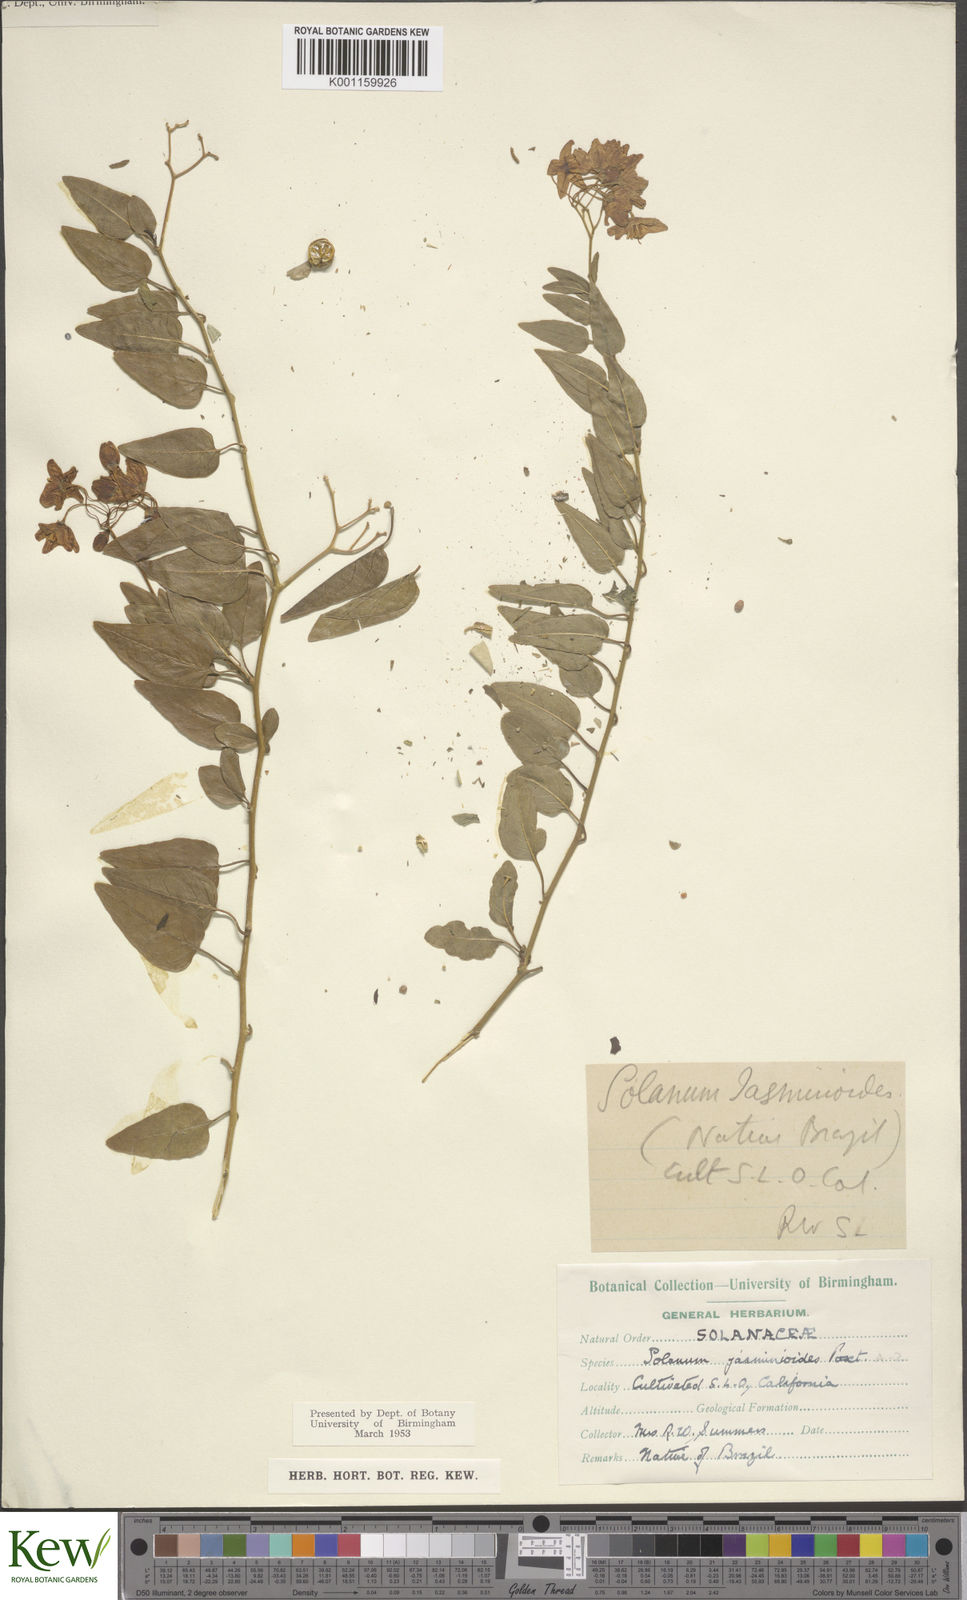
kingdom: Plantae
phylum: Tracheophyta
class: Magnoliopsida
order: Solanales
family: Solanaceae
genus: Solanum
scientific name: Solanum laxum
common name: Nightshade
